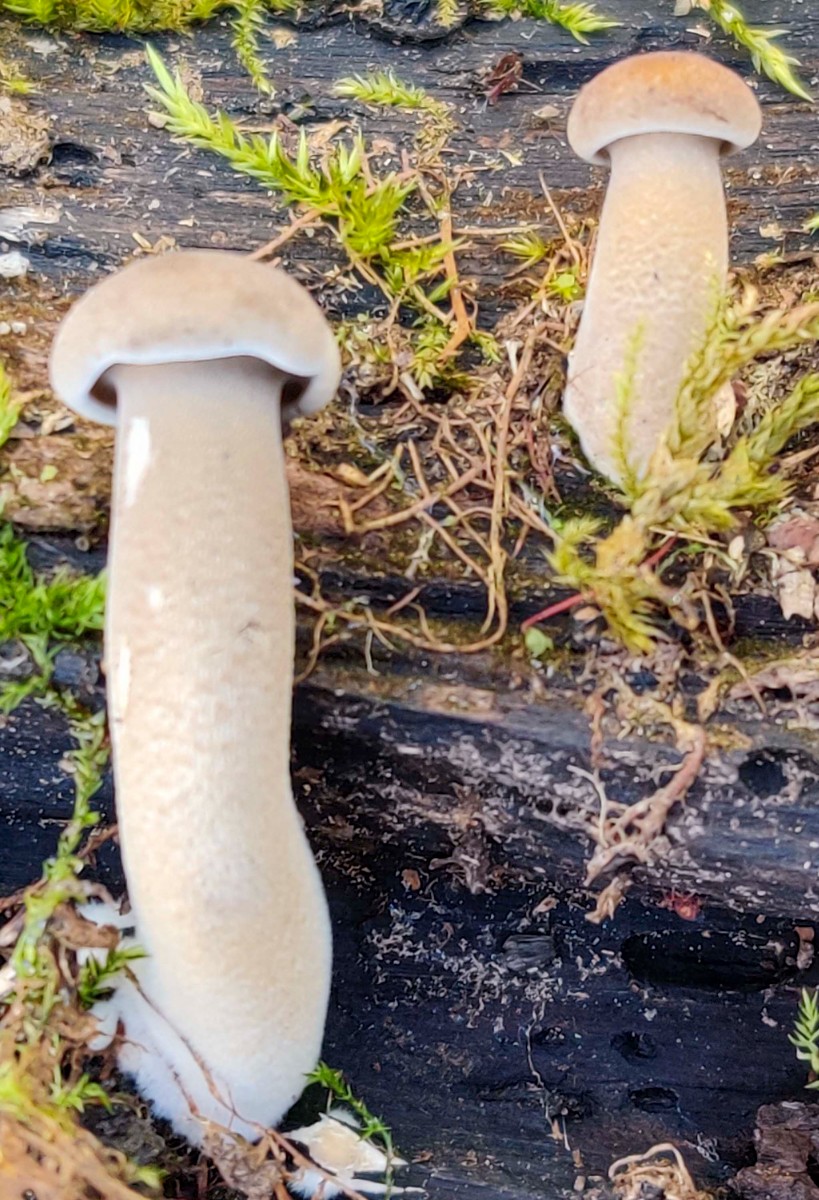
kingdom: Fungi
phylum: Basidiomycota
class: Agaricomycetes
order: Polyporales
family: Polyporaceae
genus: Lentinus
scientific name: Lentinus substrictus
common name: forårs-stilkporesvamp
